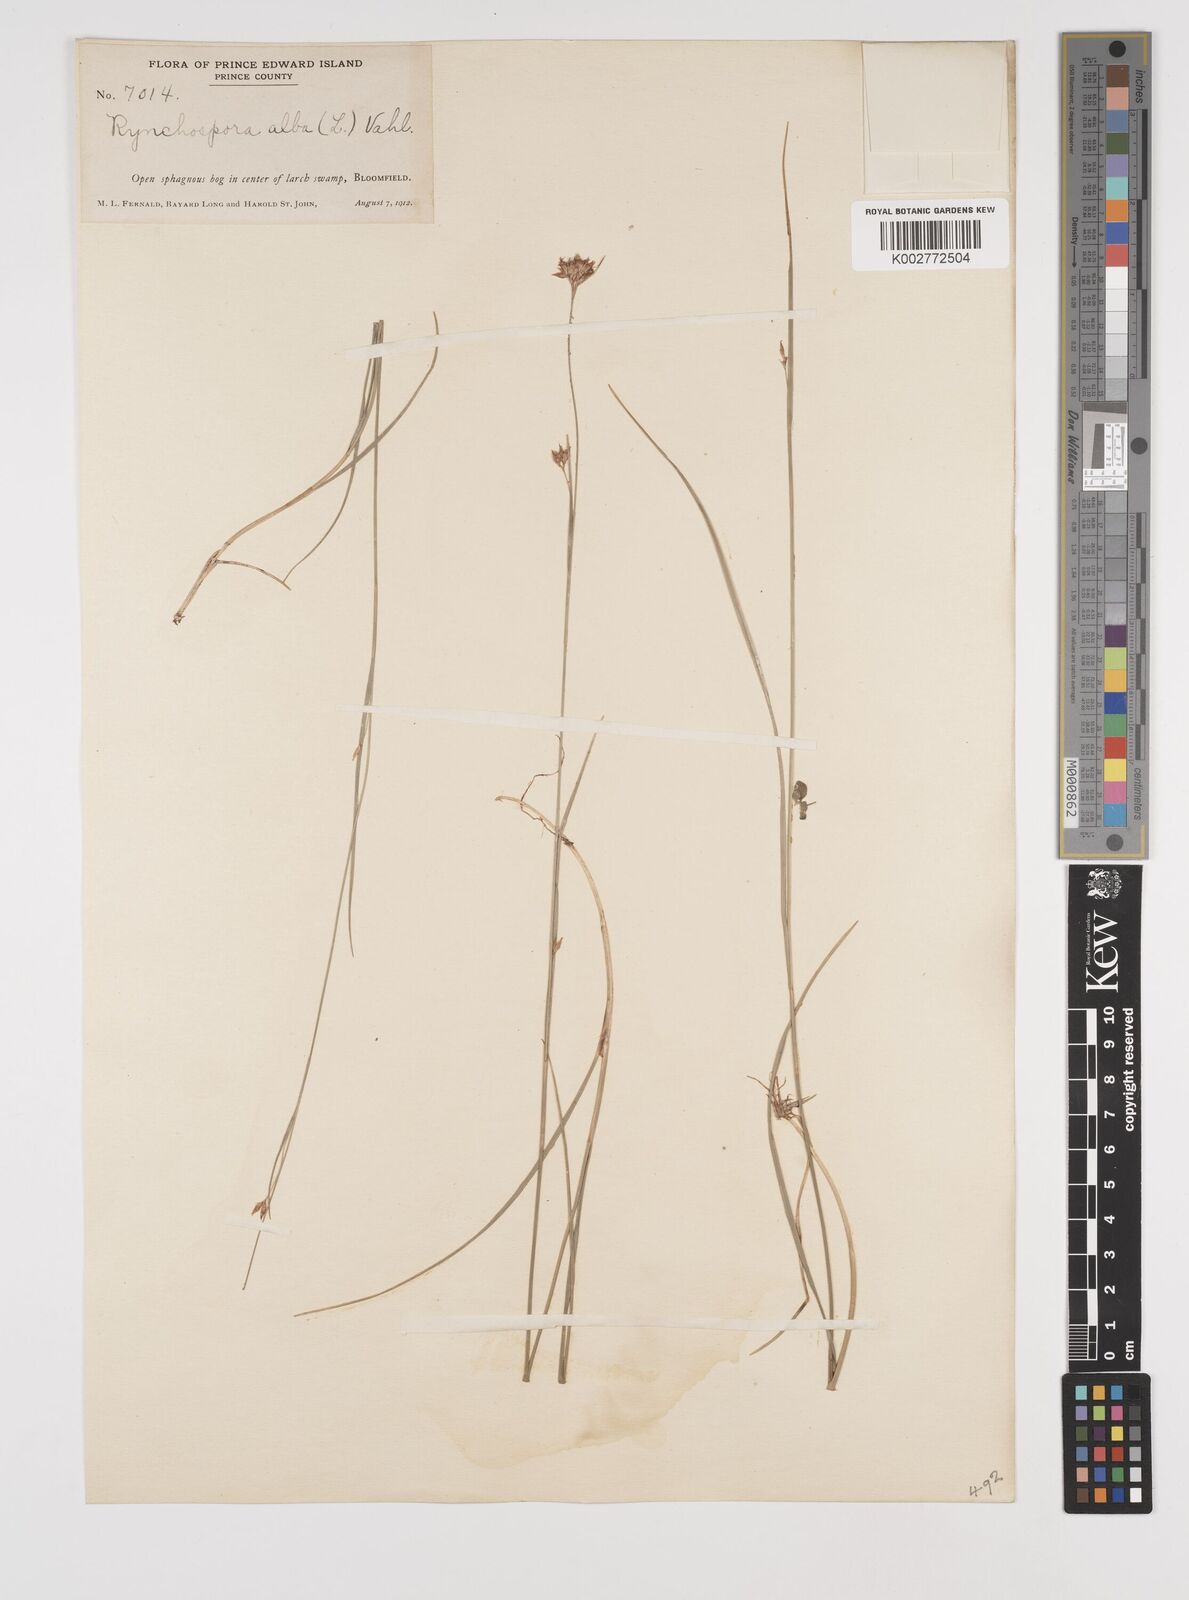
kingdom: Plantae
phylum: Tracheophyta
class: Liliopsida
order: Poales
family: Cyperaceae
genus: Rhynchospora
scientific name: Rhynchospora alba
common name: White beak-sedge
